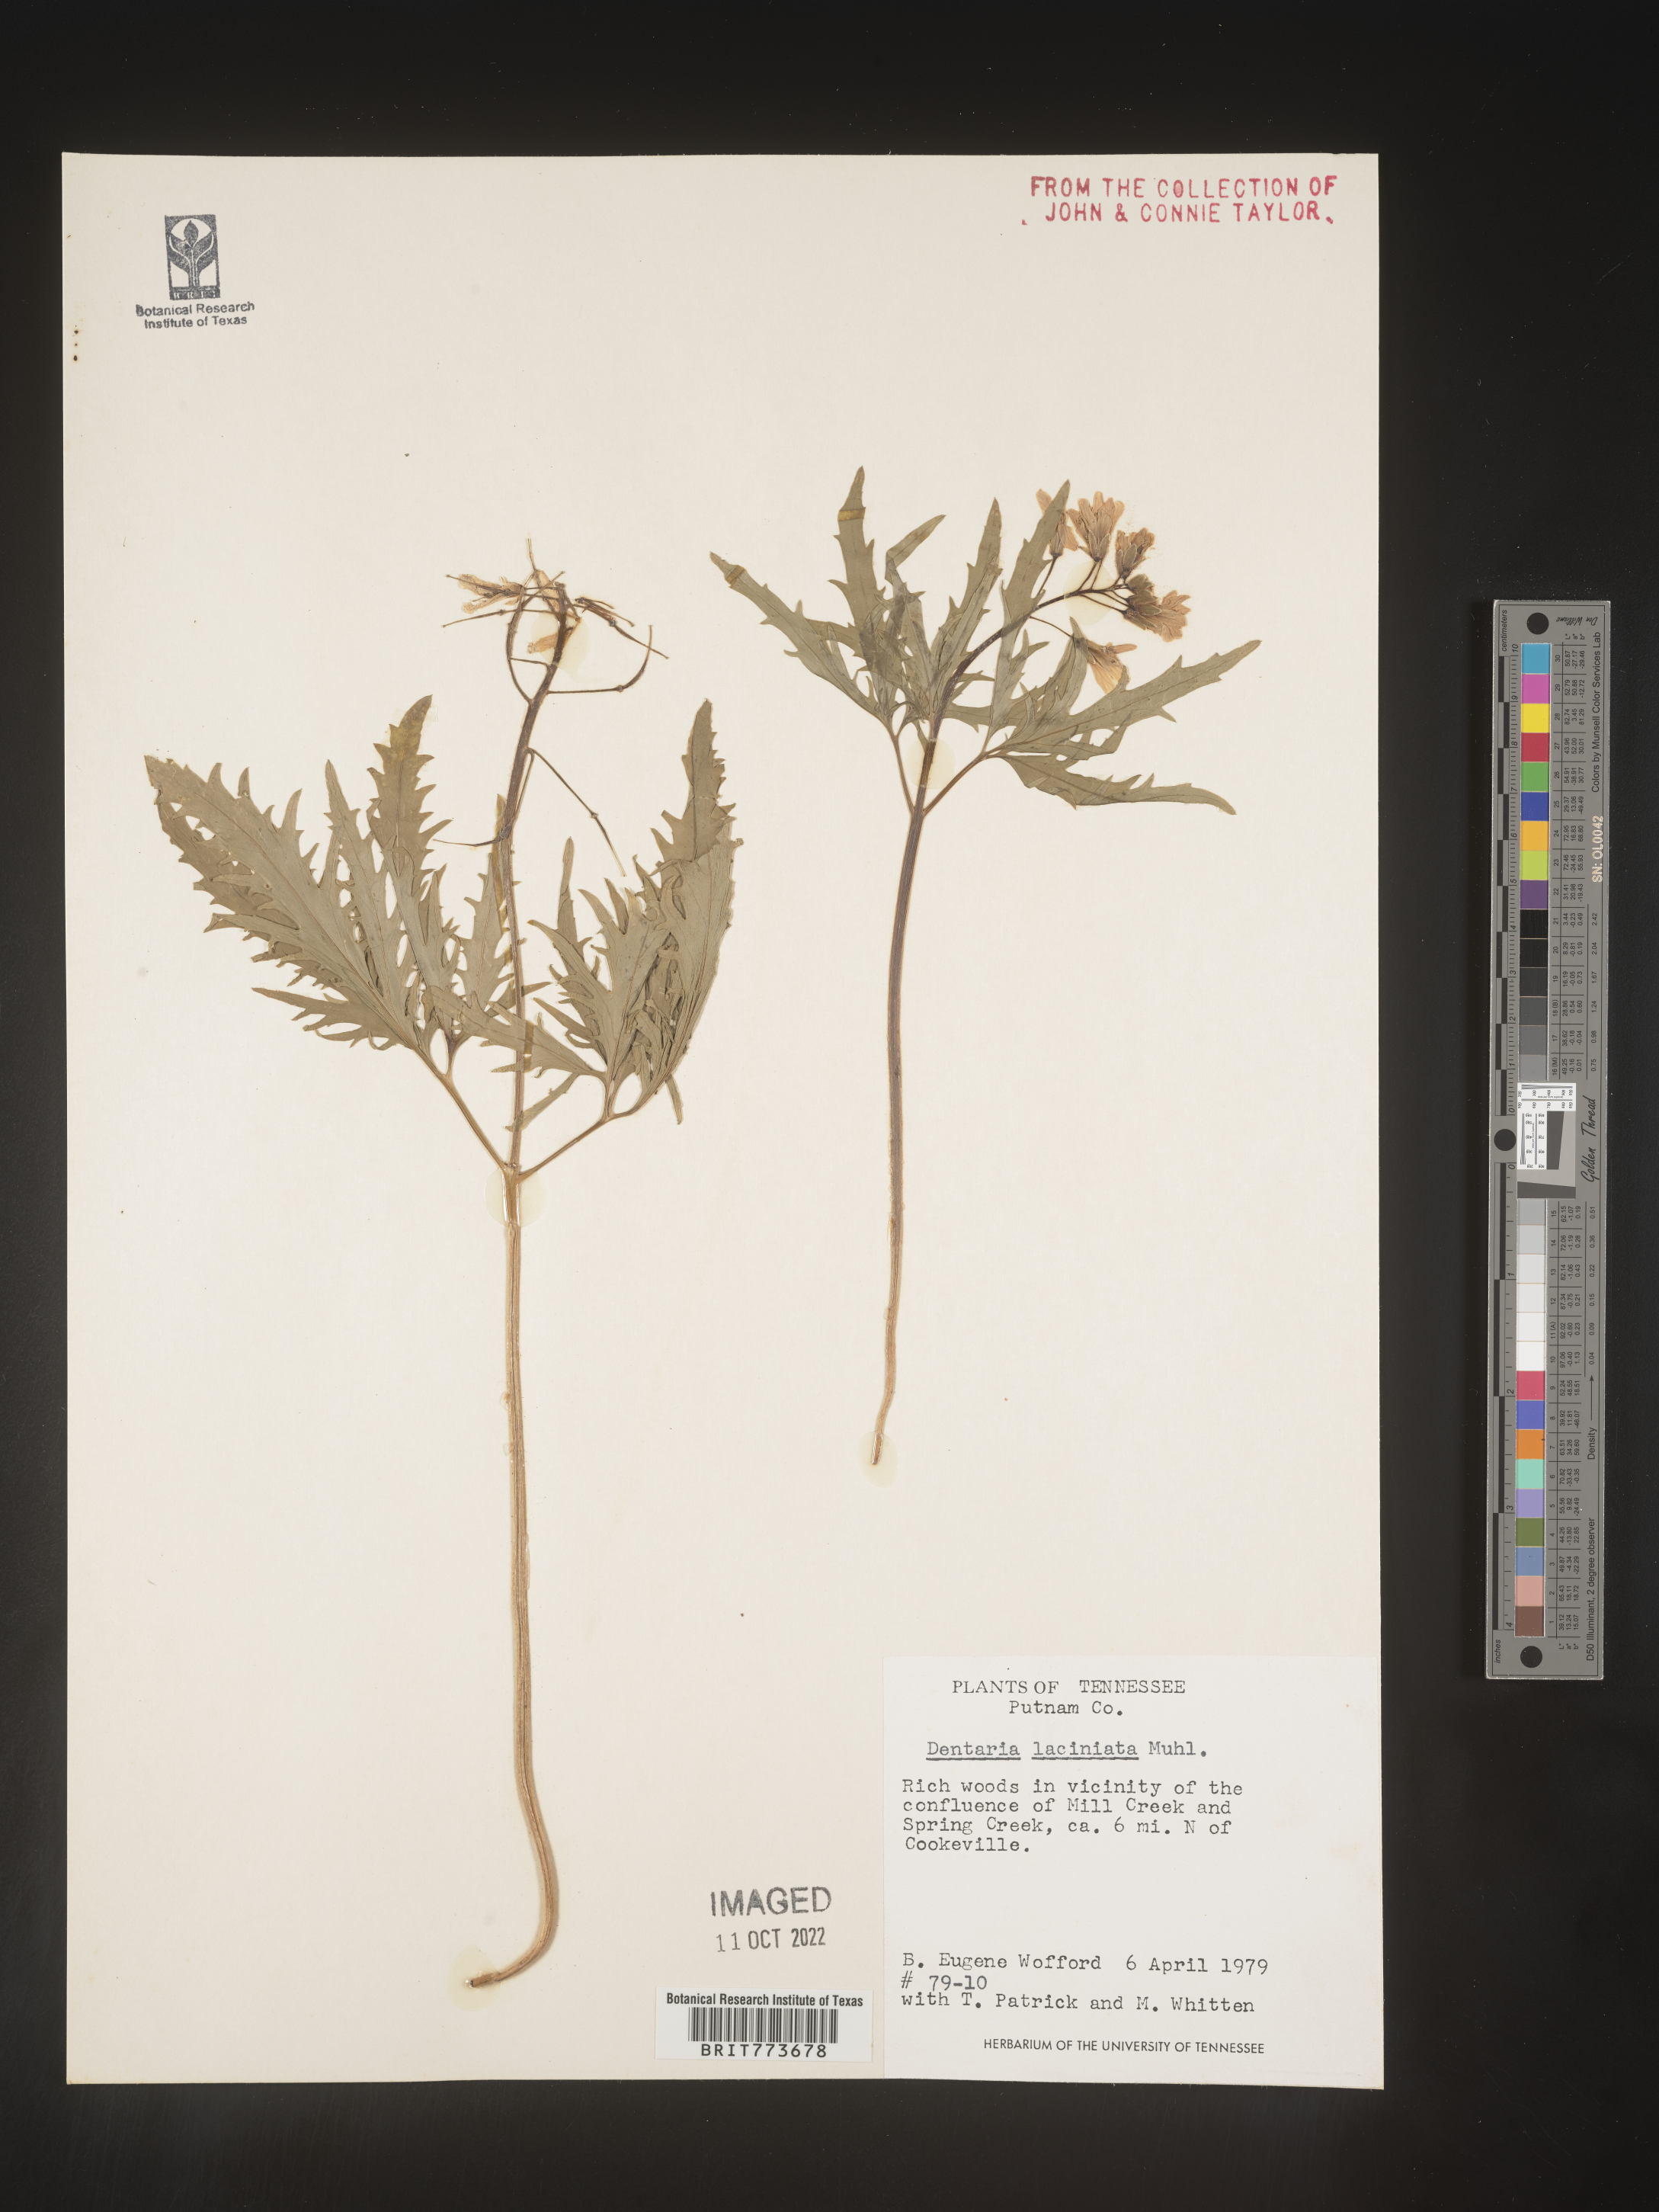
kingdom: Plantae
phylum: Tracheophyta
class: Magnoliopsida
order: Brassicales
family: Brassicaceae
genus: Rorippa
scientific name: Rorippa laciniata
